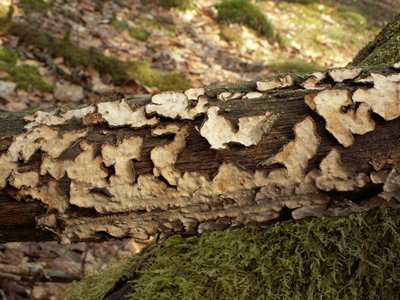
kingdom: Fungi
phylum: Basidiomycota
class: Agaricomycetes
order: Russulales
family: Stereaceae
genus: Stereum
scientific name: Stereum rugosum
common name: rynket lædersvamp
